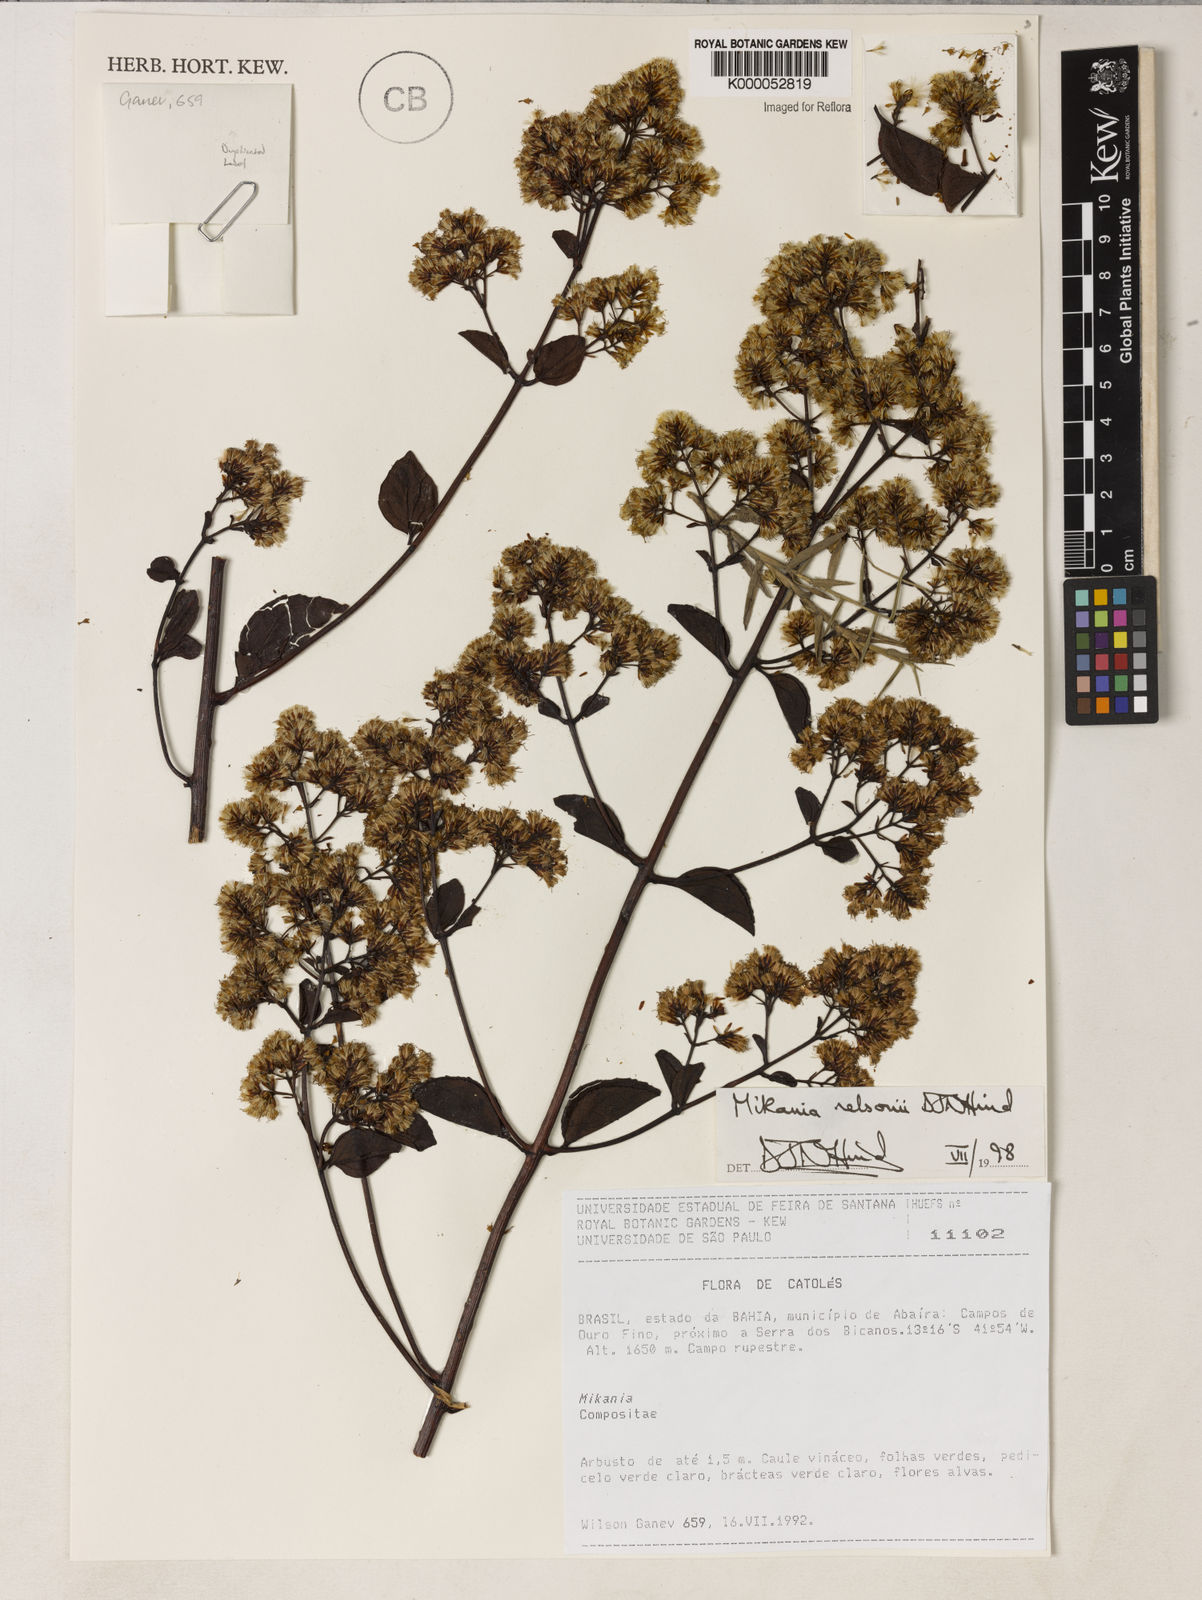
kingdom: Plantae
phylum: Tracheophyta
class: Magnoliopsida
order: Asterales
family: Asteraceae
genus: Mikania
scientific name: Mikania nelsonii
